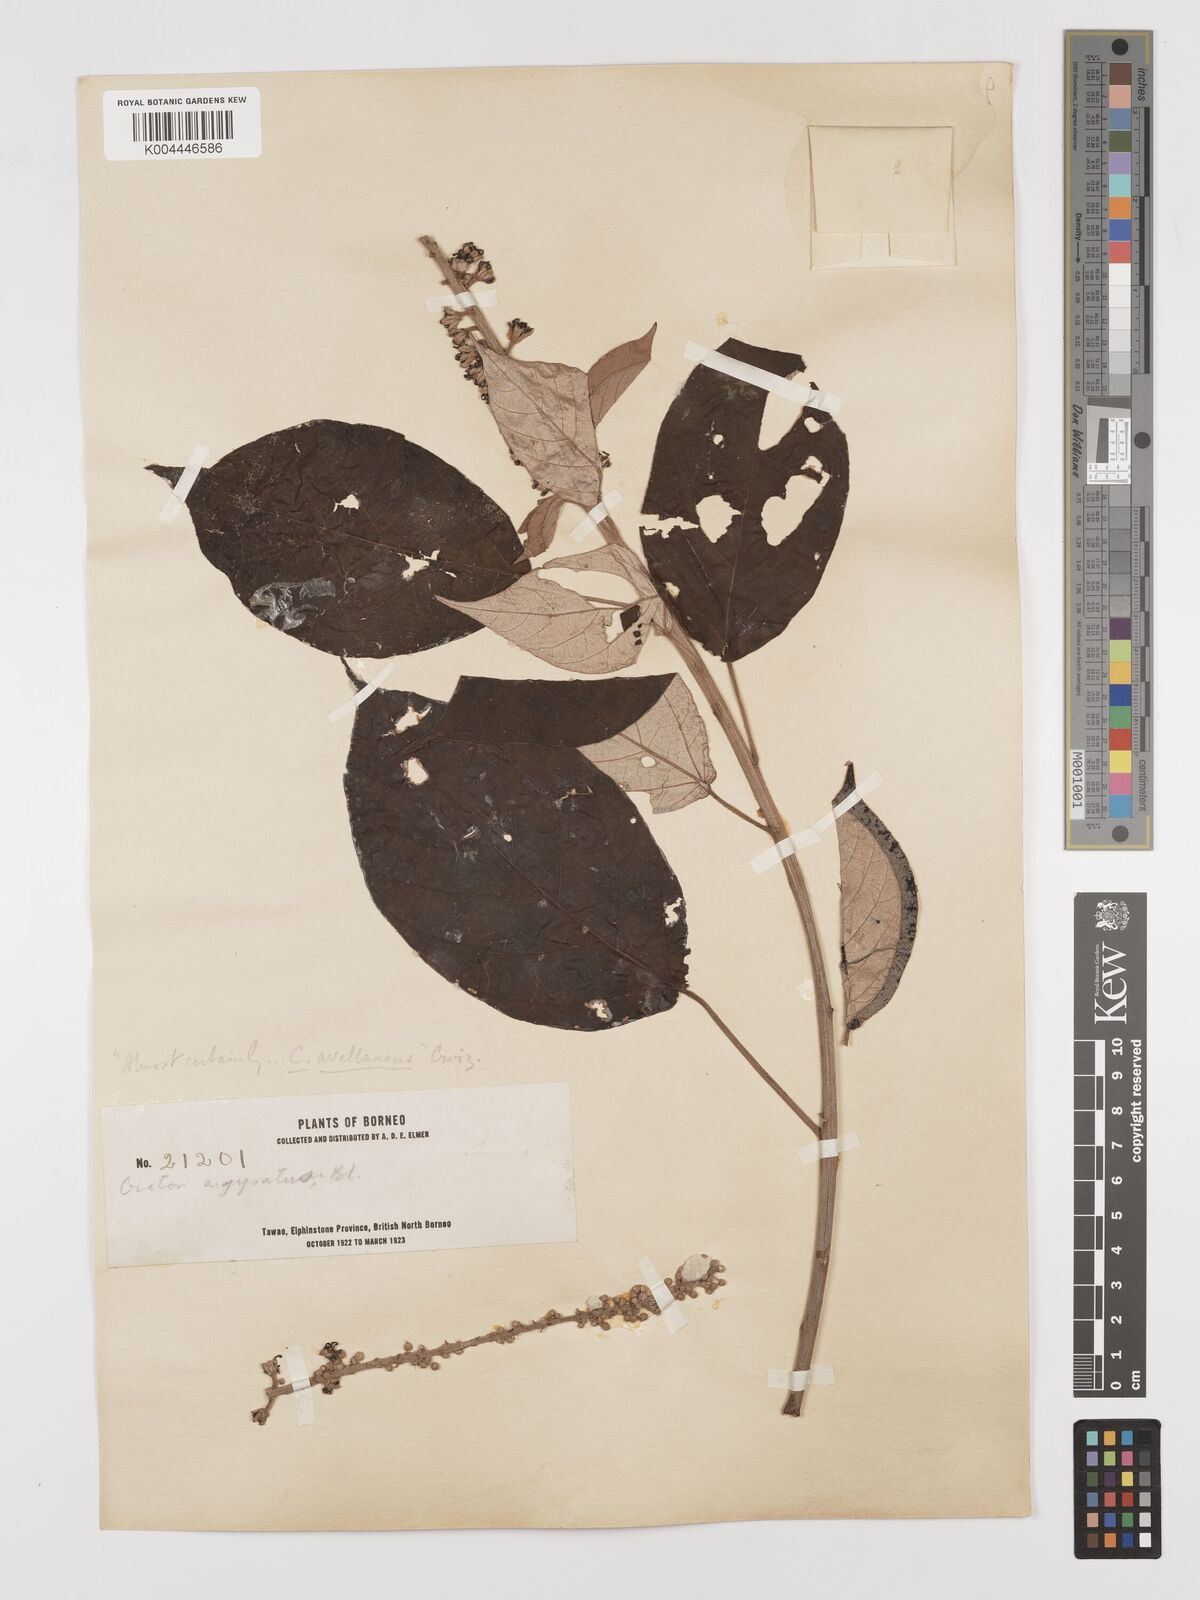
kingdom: Plantae
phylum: Tracheophyta
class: Magnoliopsida
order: Malpighiales
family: Euphorbiaceae
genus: Croton
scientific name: Croton argyratus
